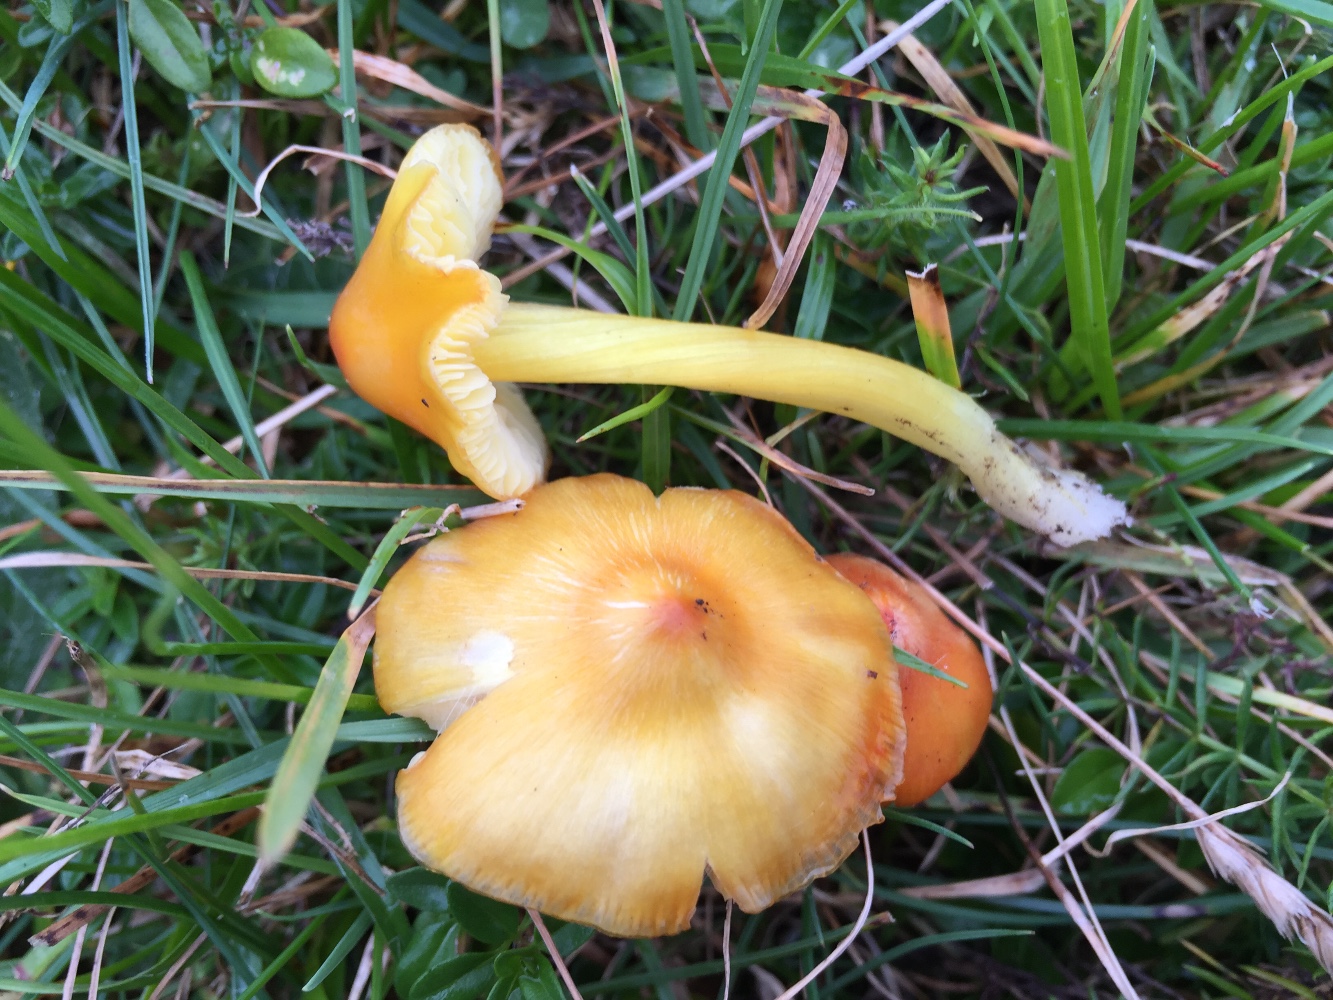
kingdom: Fungi
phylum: Basidiomycota
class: Agaricomycetes
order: Agaricales
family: Hygrophoraceae
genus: Hygrocybe
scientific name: Hygrocybe acutoconica
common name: spidspuklet vokshat
